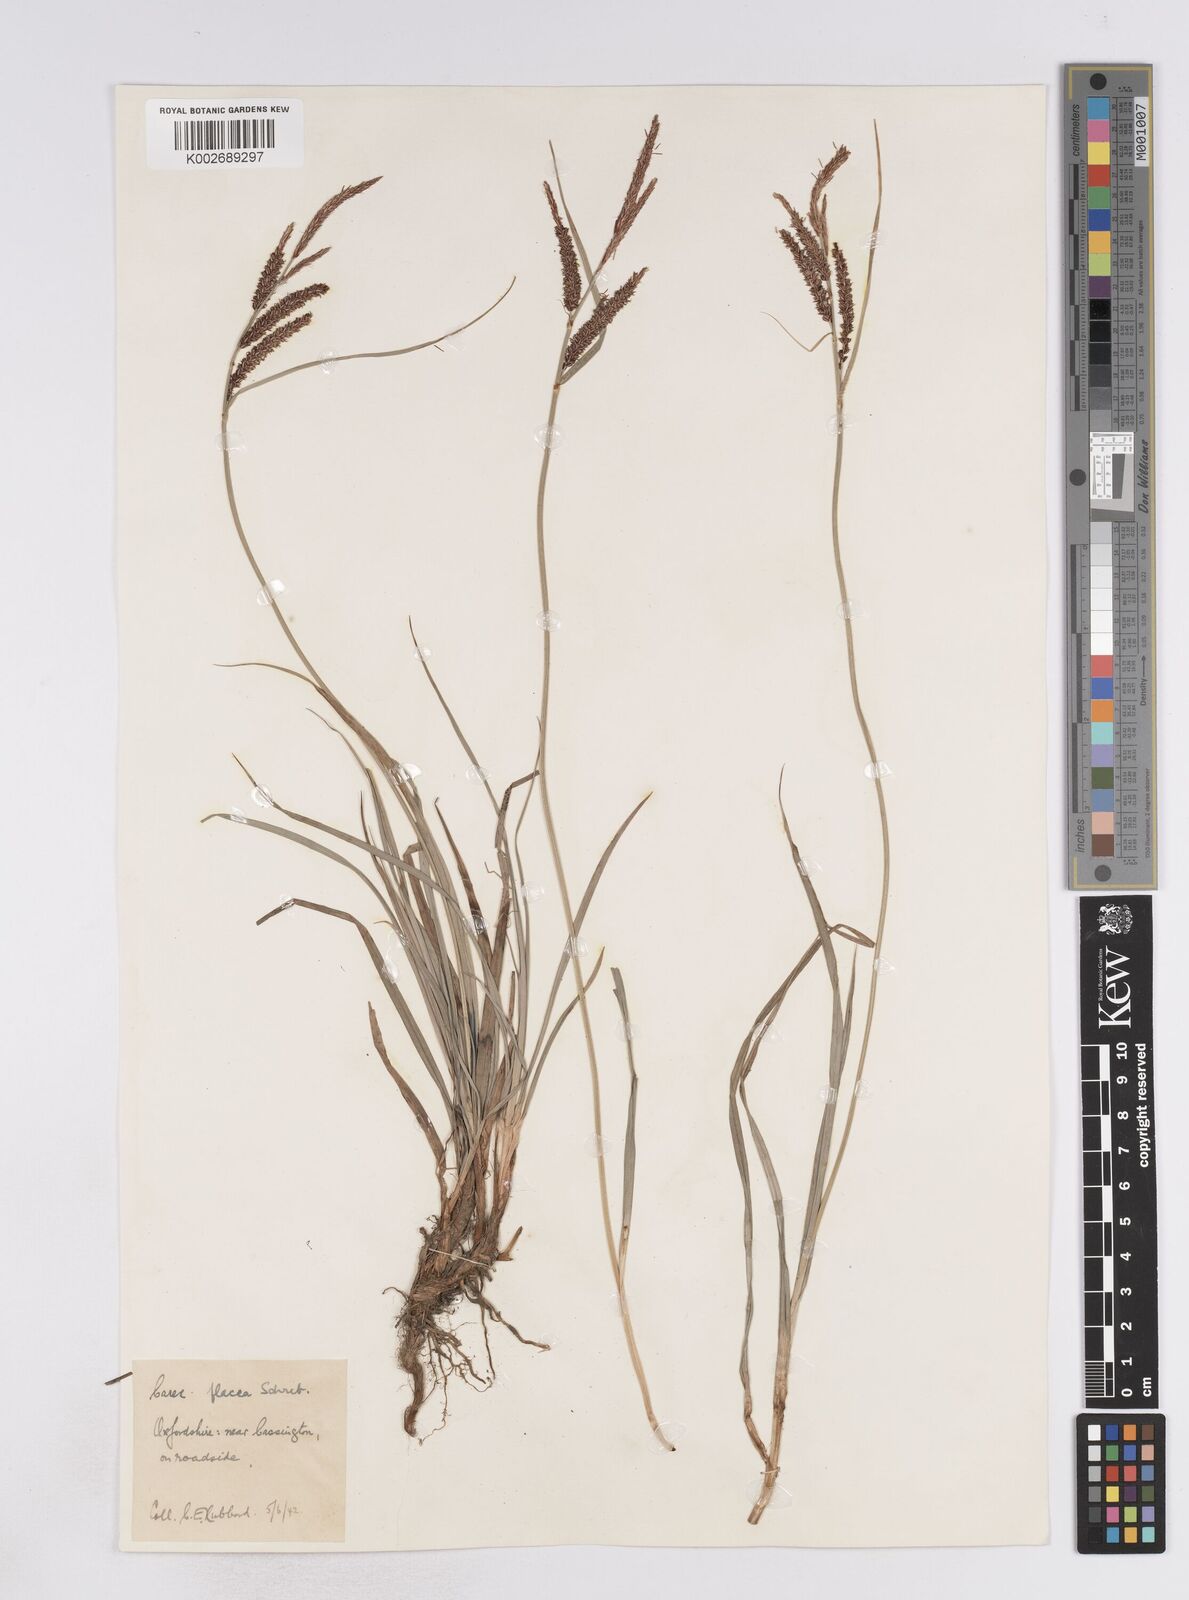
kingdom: Plantae
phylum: Tracheophyta
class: Liliopsida
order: Poales
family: Cyperaceae
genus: Carex
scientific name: Carex flacca
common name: Glaucous sedge
